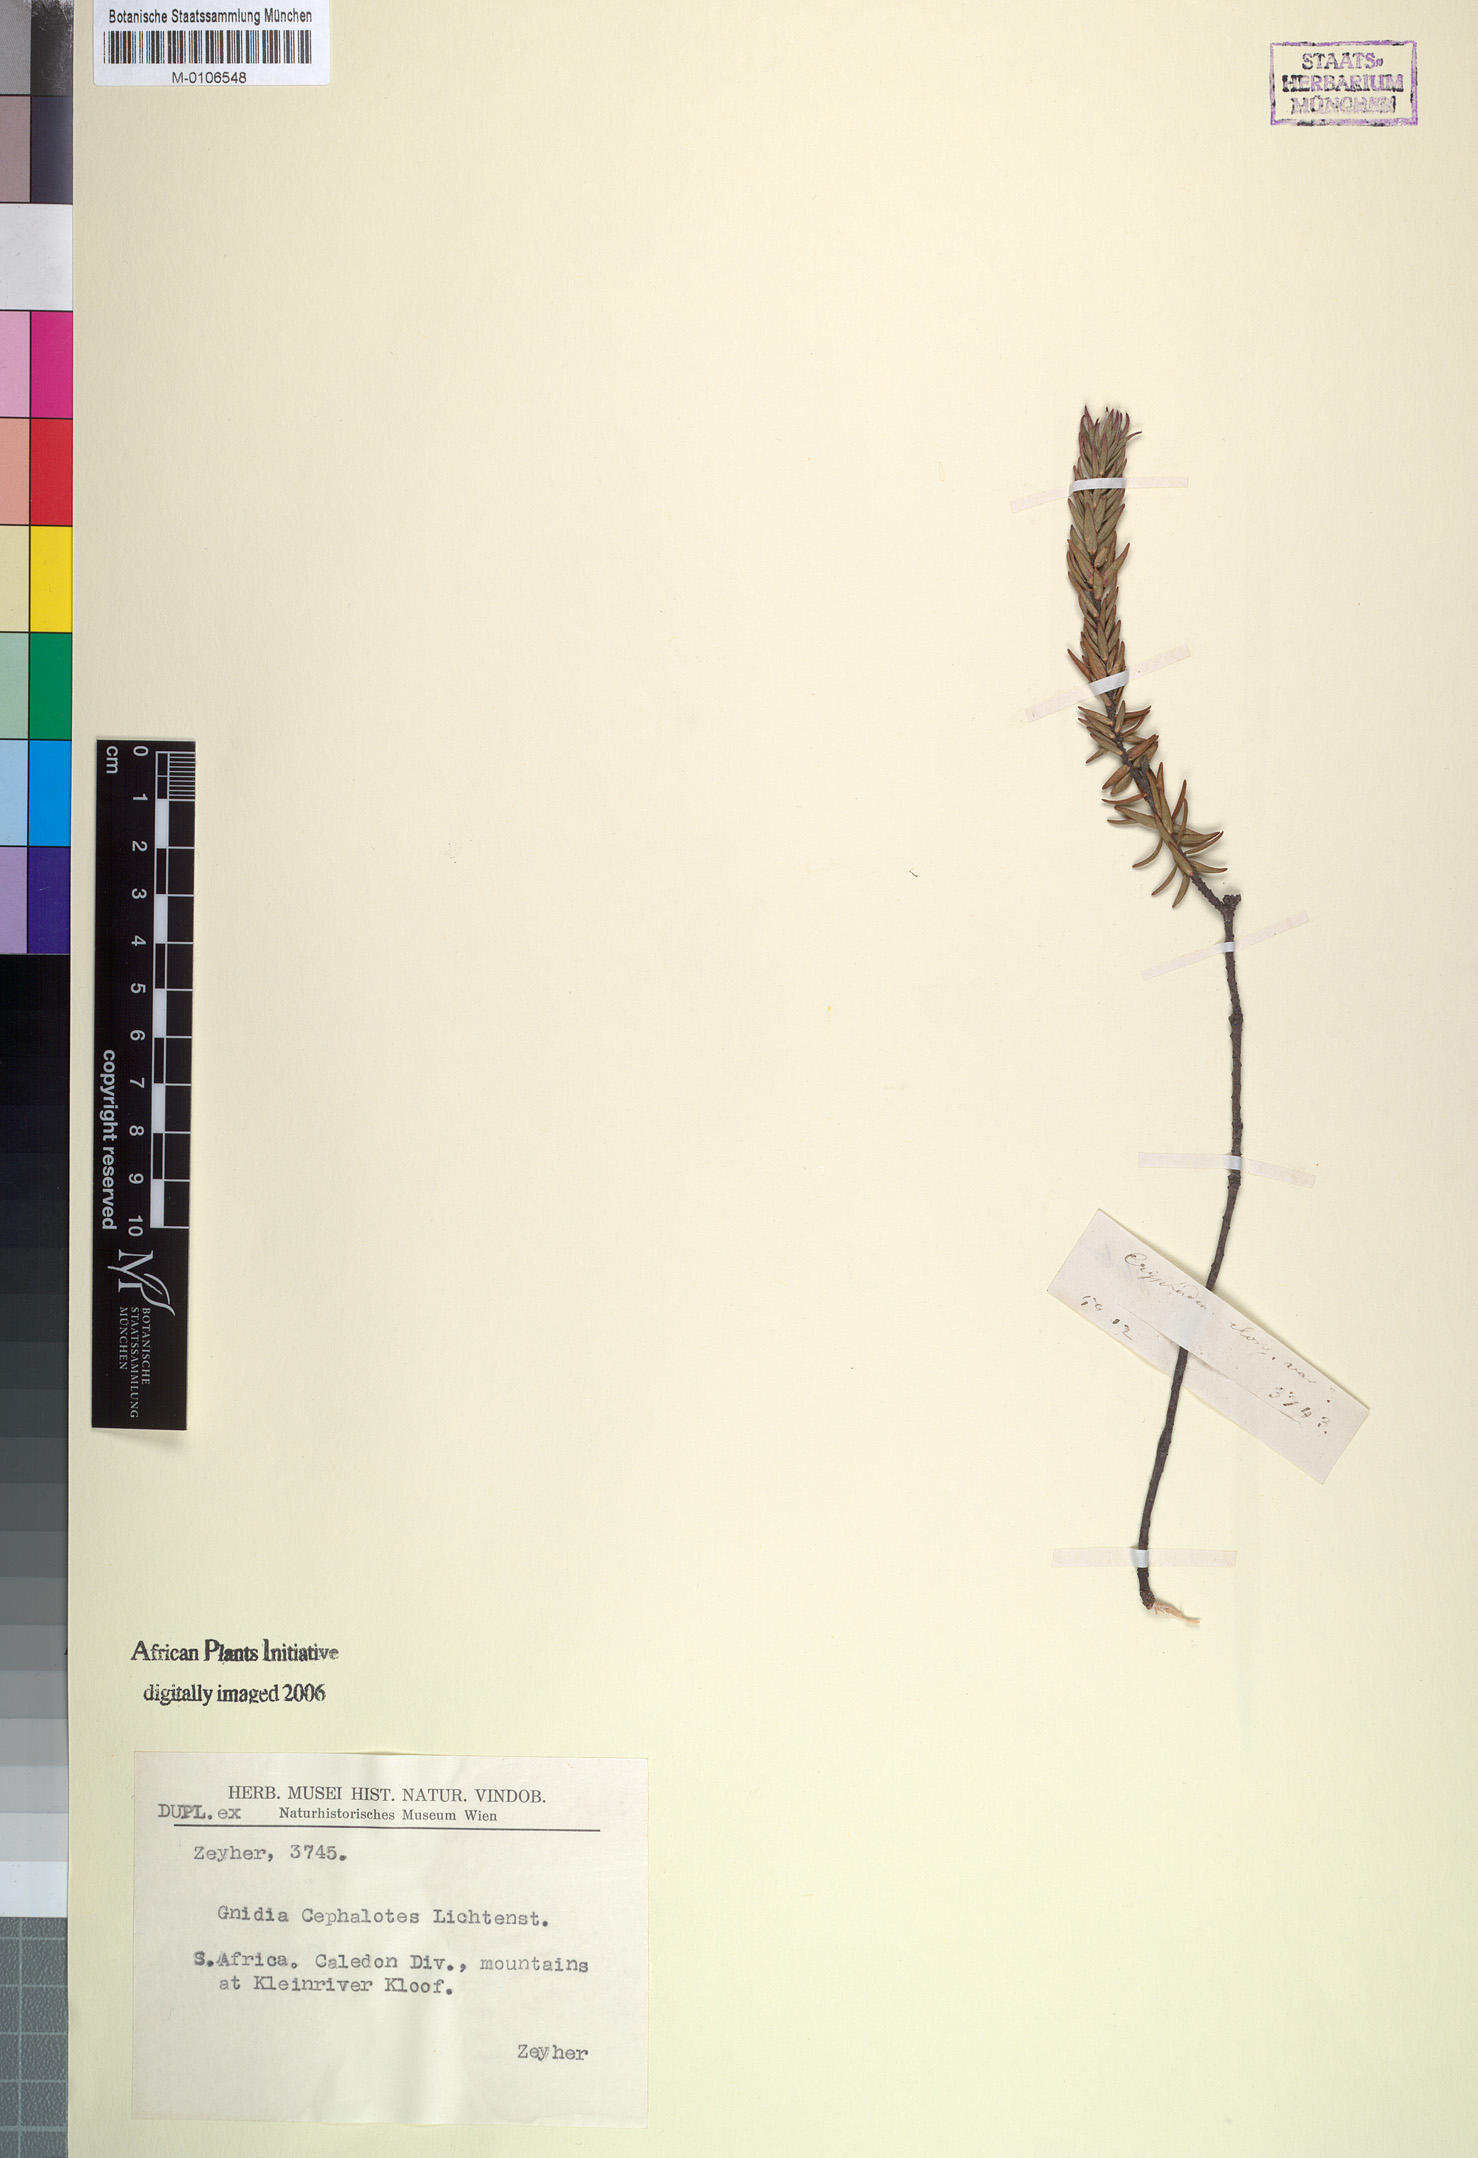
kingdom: Plantae
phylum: Tracheophyta
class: Magnoliopsida
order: Malvales
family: Thymelaeaceae
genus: Lachnaea
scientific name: Lachnaea grandiflora
